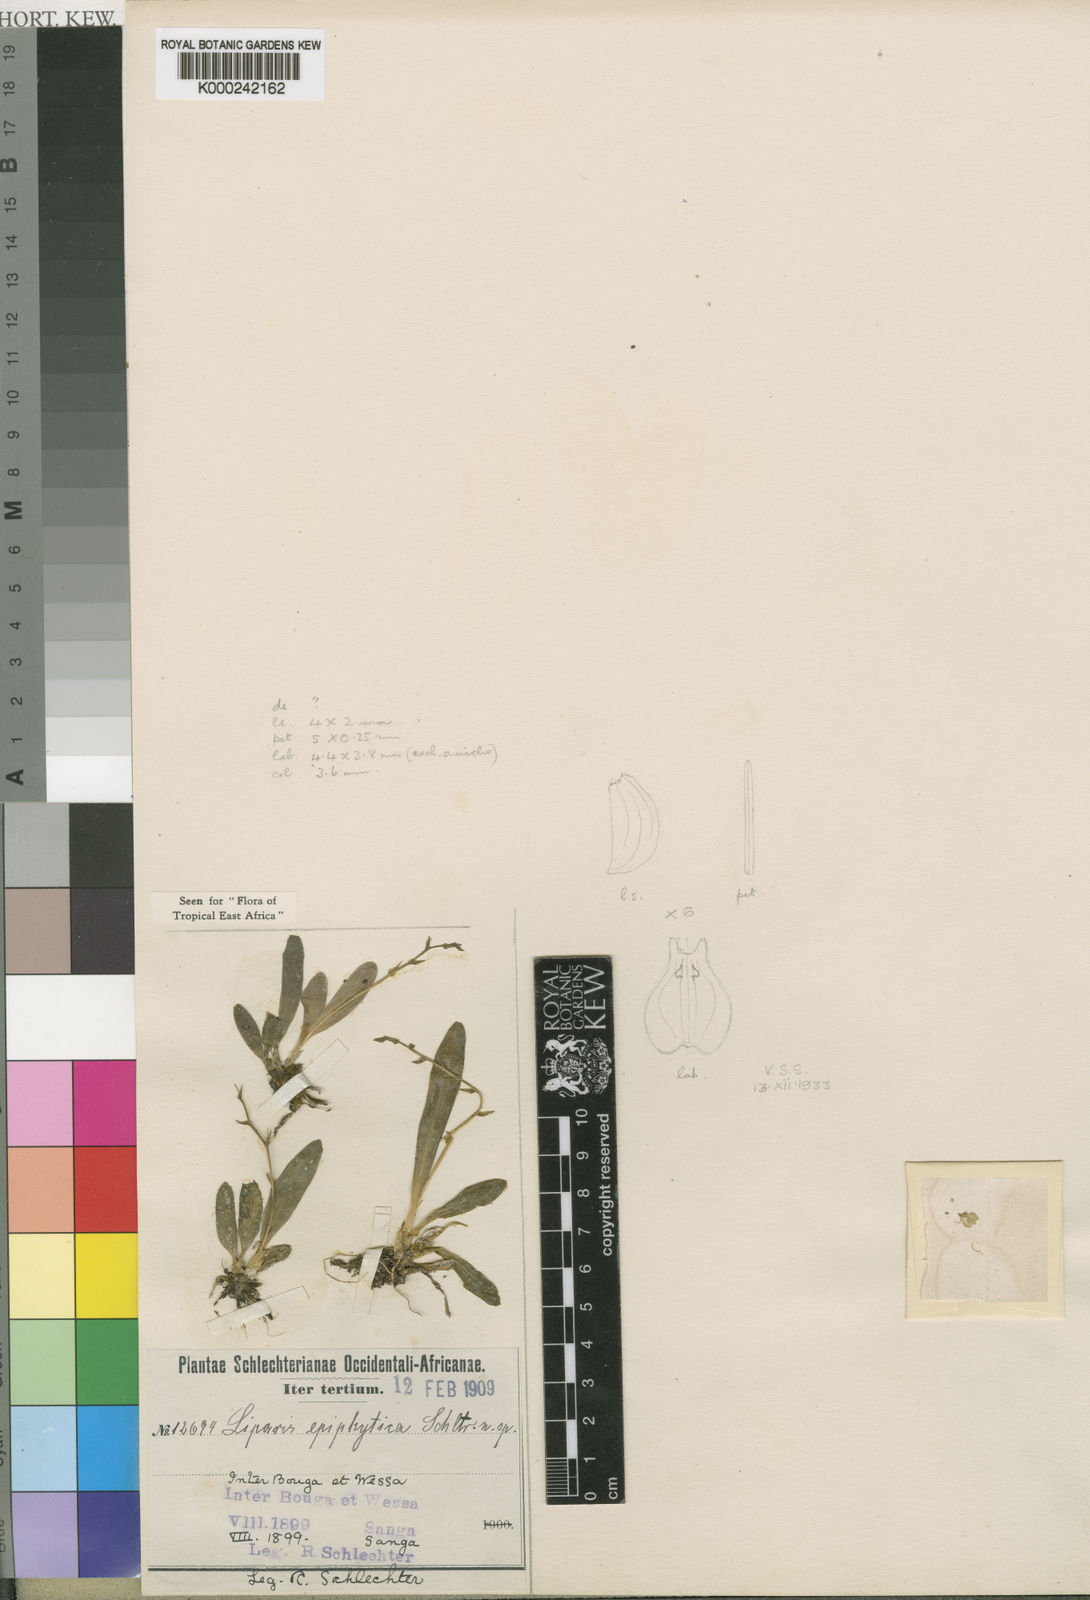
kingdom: Plantae
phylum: Tracheophyta
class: Liliopsida
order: Asparagales
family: Orchidaceae
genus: Liparis
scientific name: Liparis epiphytica
